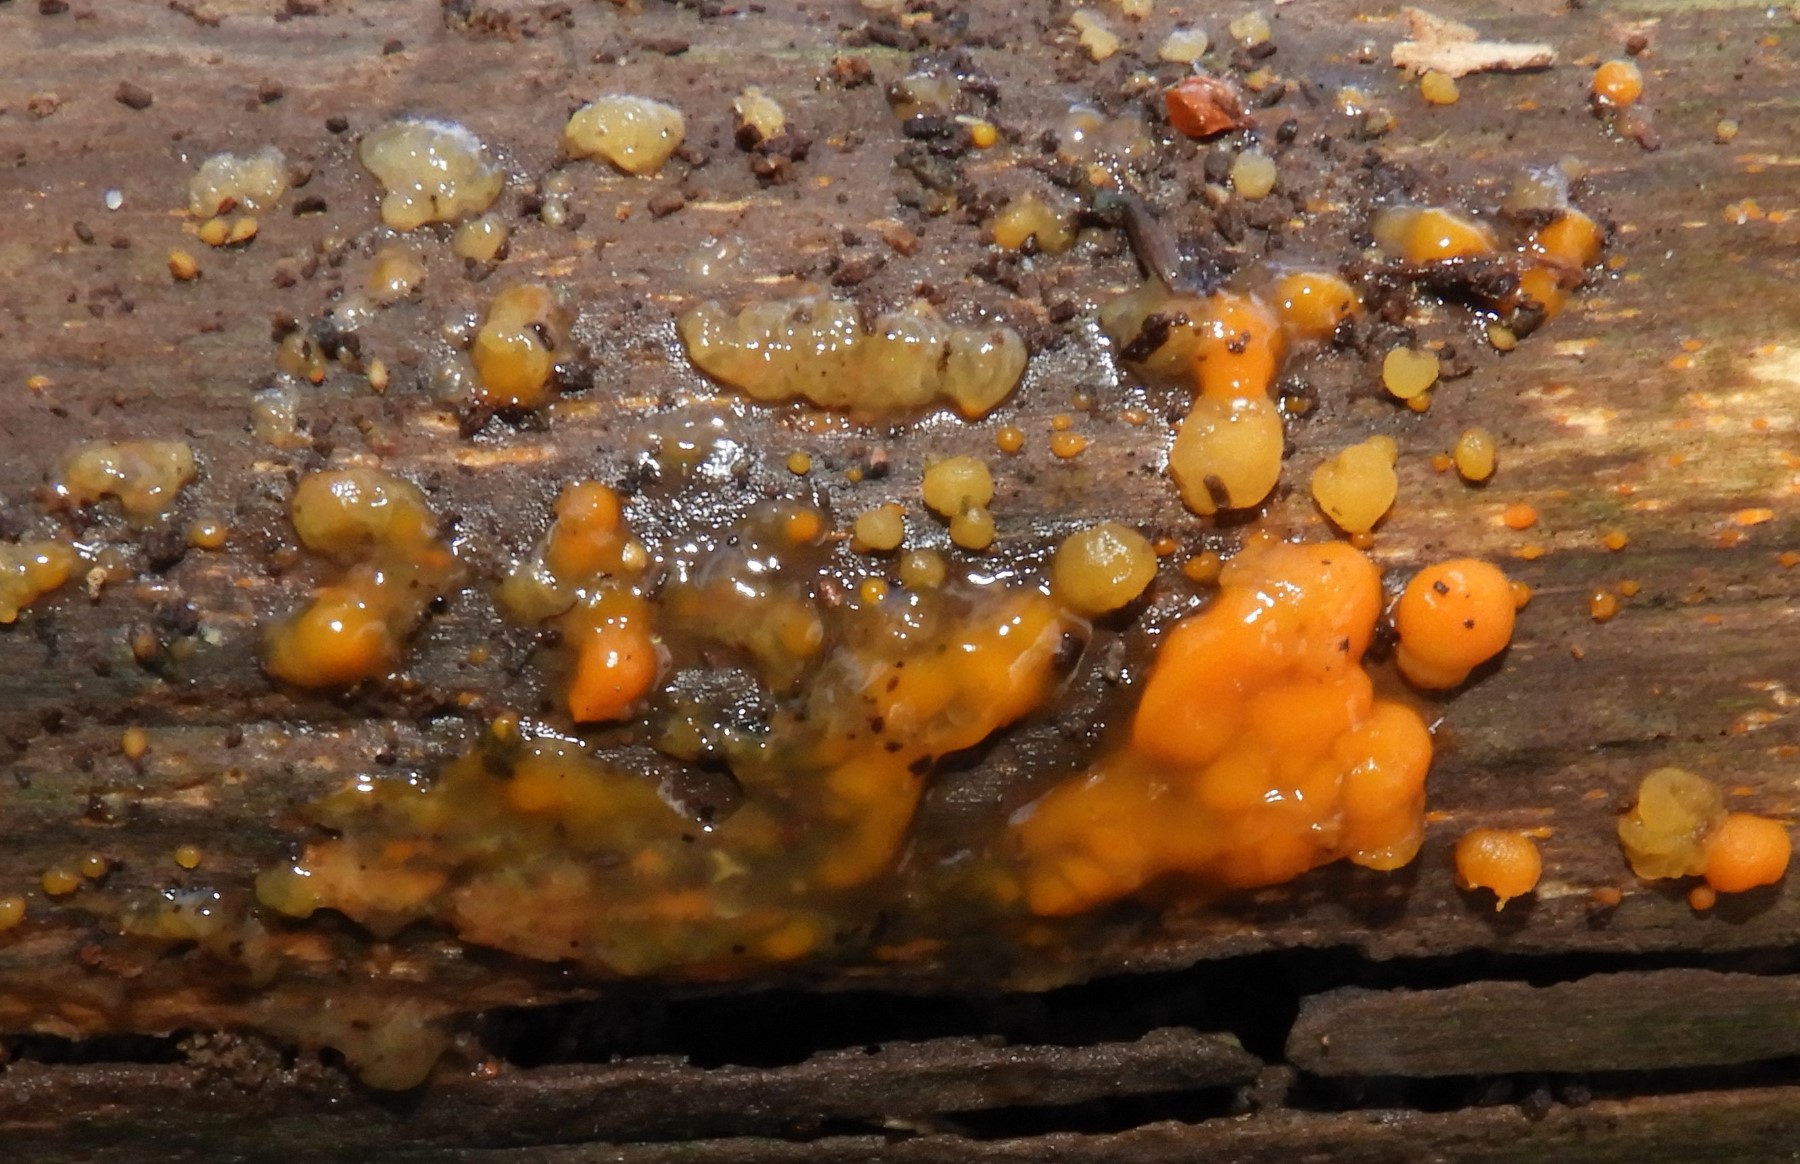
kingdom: Fungi
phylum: Basidiomycota
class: Dacrymycetes
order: Dacrymycetales
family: Dacrymycetaceae
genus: Dacrymyces
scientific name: Dacrymyces stillatus
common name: almindelig tåresvamp
